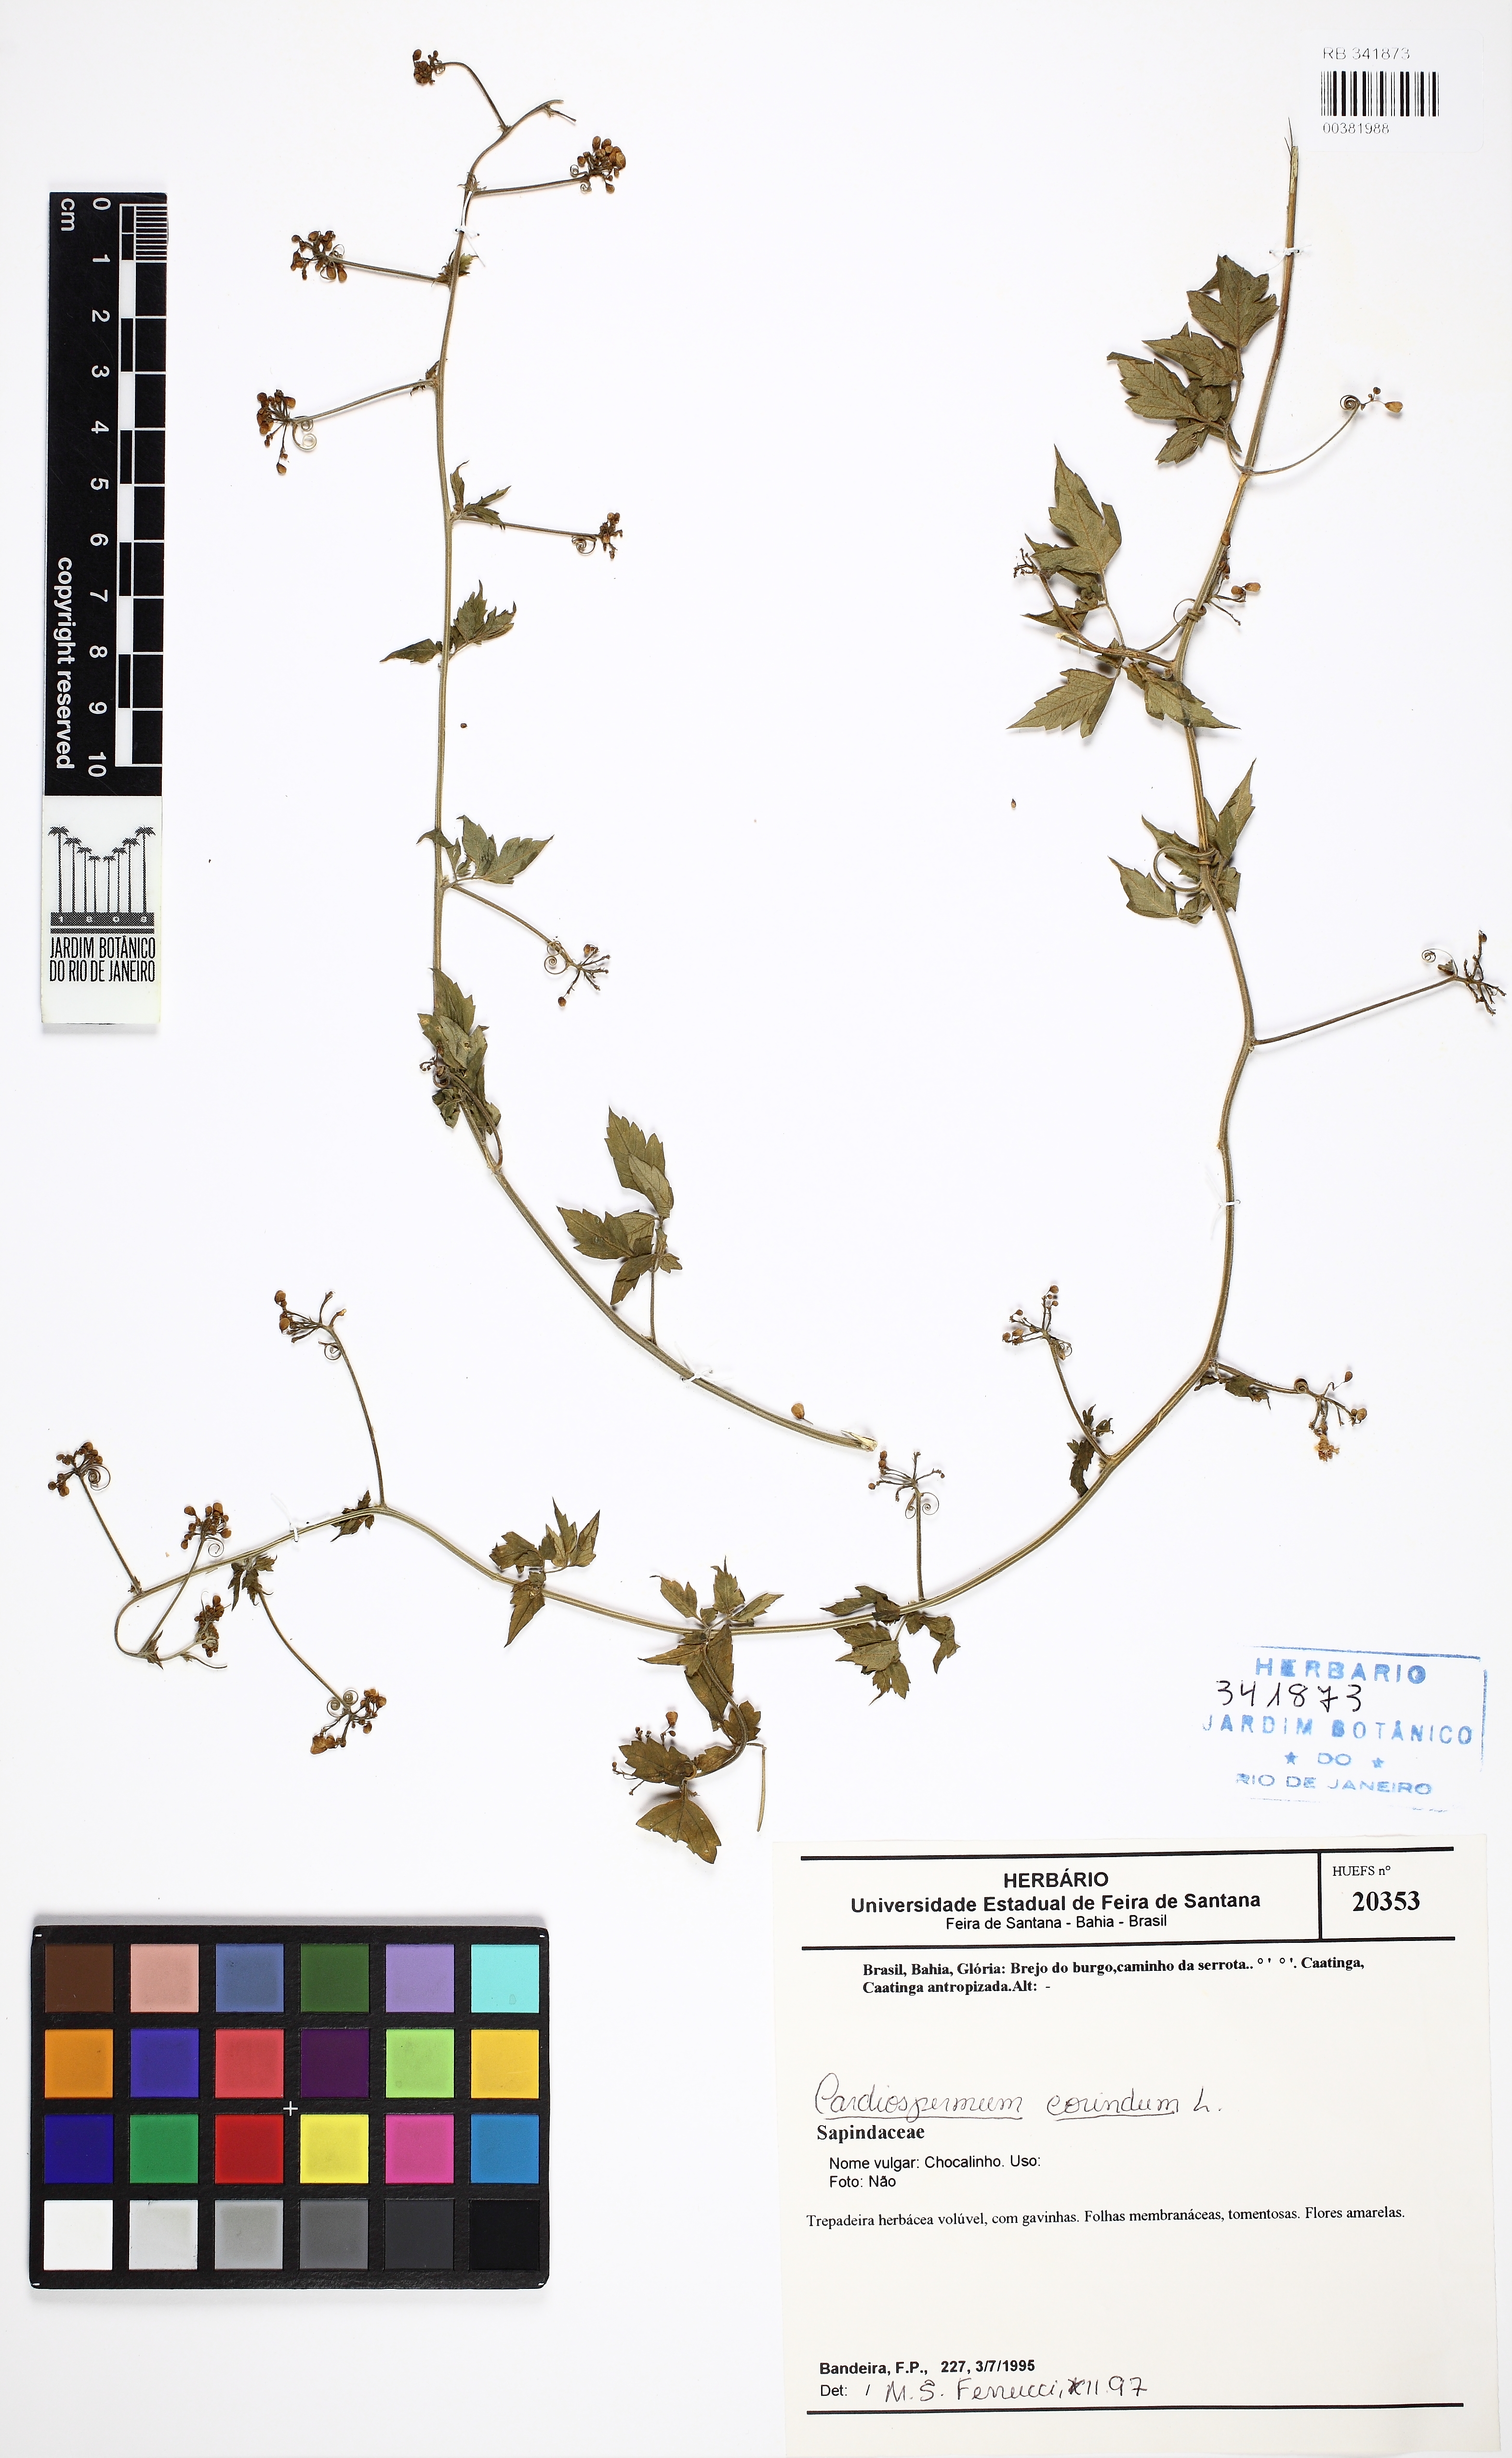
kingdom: Plantae
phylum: Tracheophyta
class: Magnoliopsida
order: Sapindales
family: Sapindaceae
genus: Cardiospermum
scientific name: Cardiospermum corindum
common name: Faux persil
